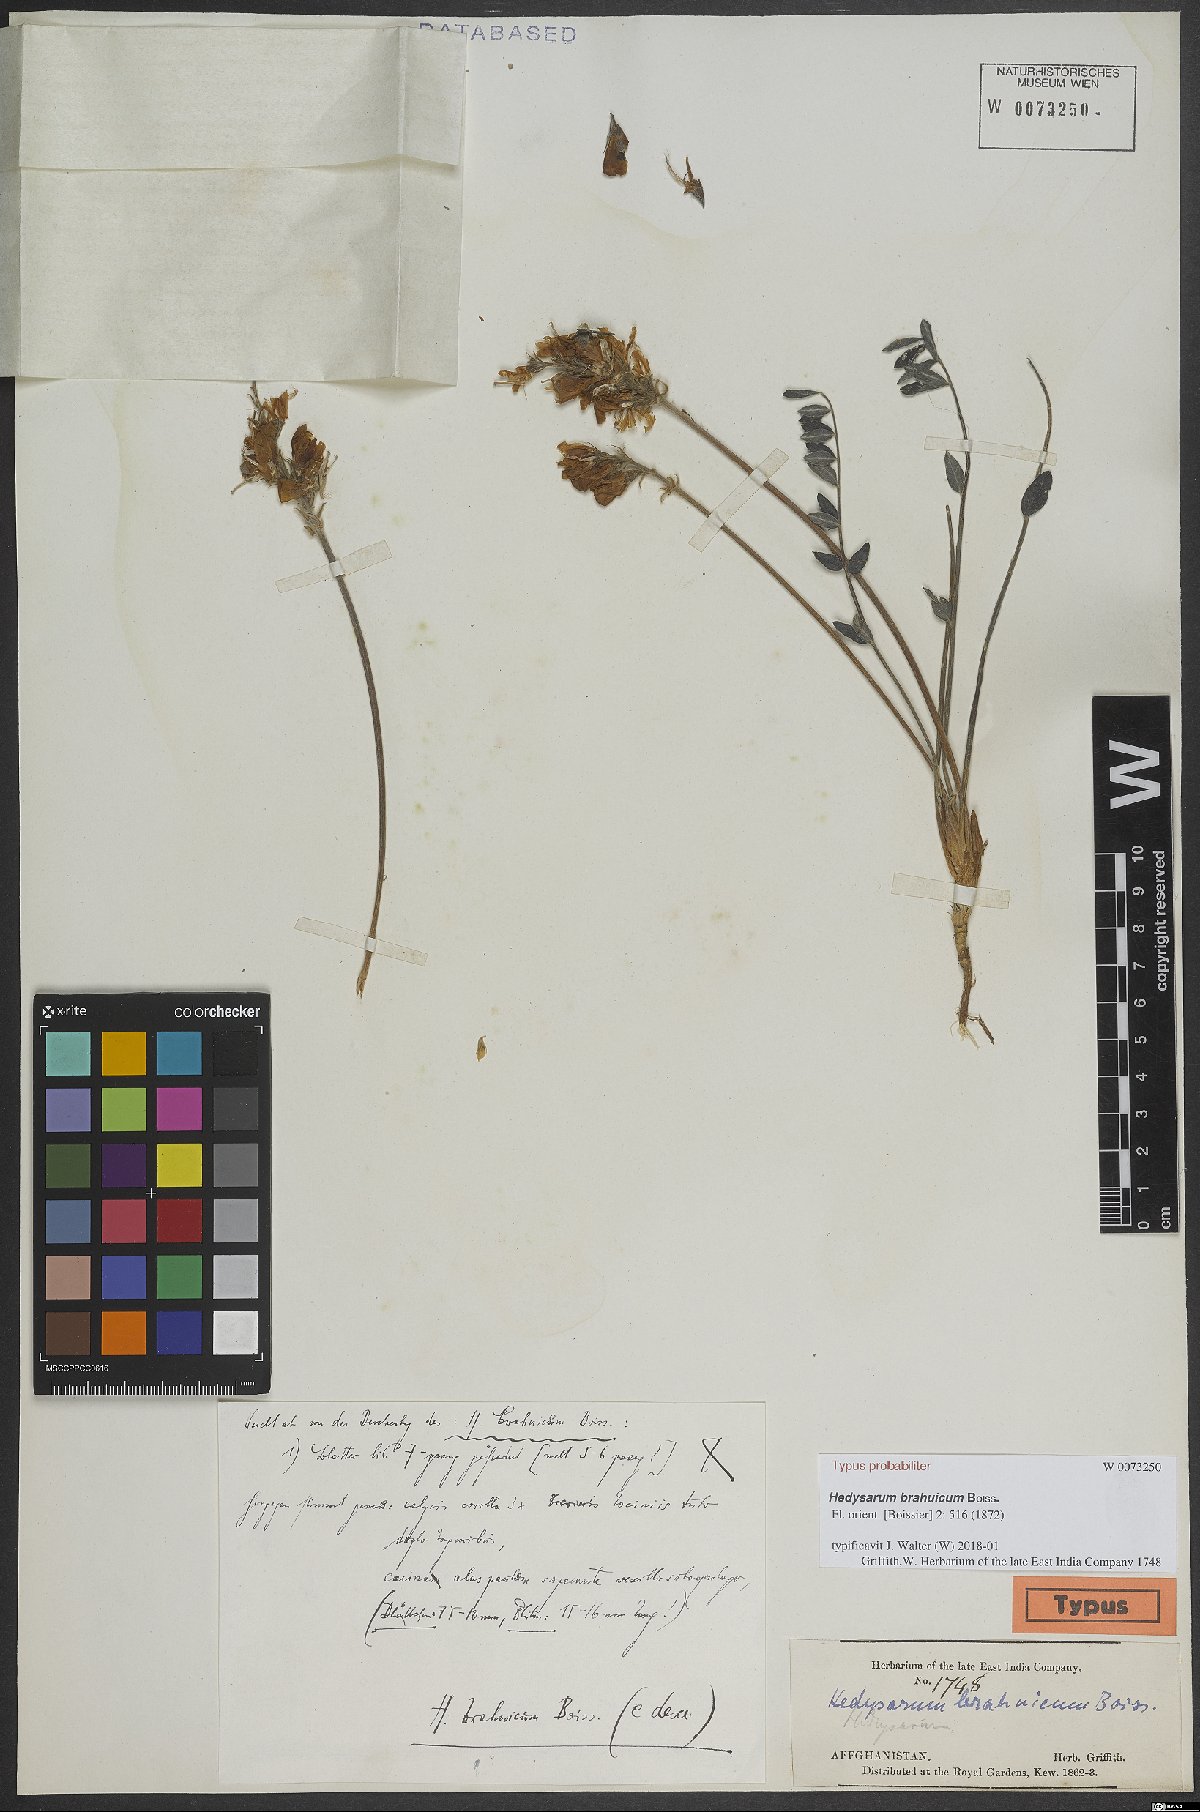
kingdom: Plantae
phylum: Tracheophyta
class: Magnoliopsida
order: Fabales
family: Fabaceae
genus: Hedysarum
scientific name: Hedysarum brahuicum
